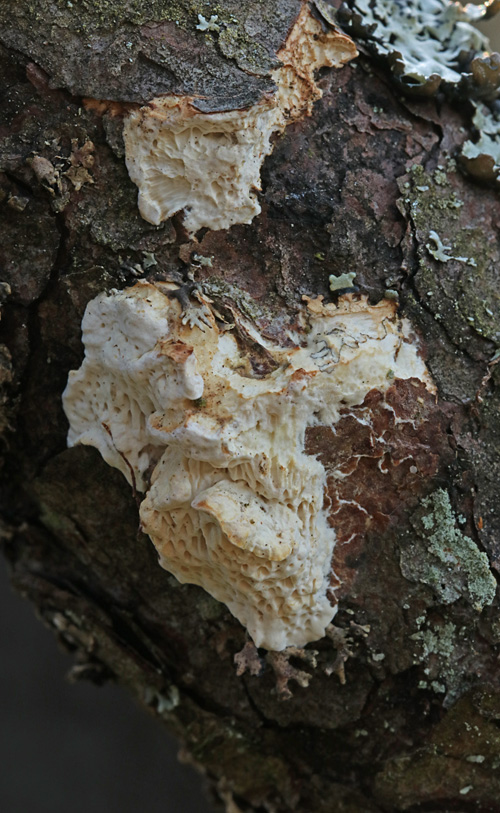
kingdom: Fungi
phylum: Basidiomycota
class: Agaricomycetes
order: Polyporales
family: Fomitopsidaceae
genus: Fomitopsis
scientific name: Fomitopsis
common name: fyrre-skiveporesvamp
